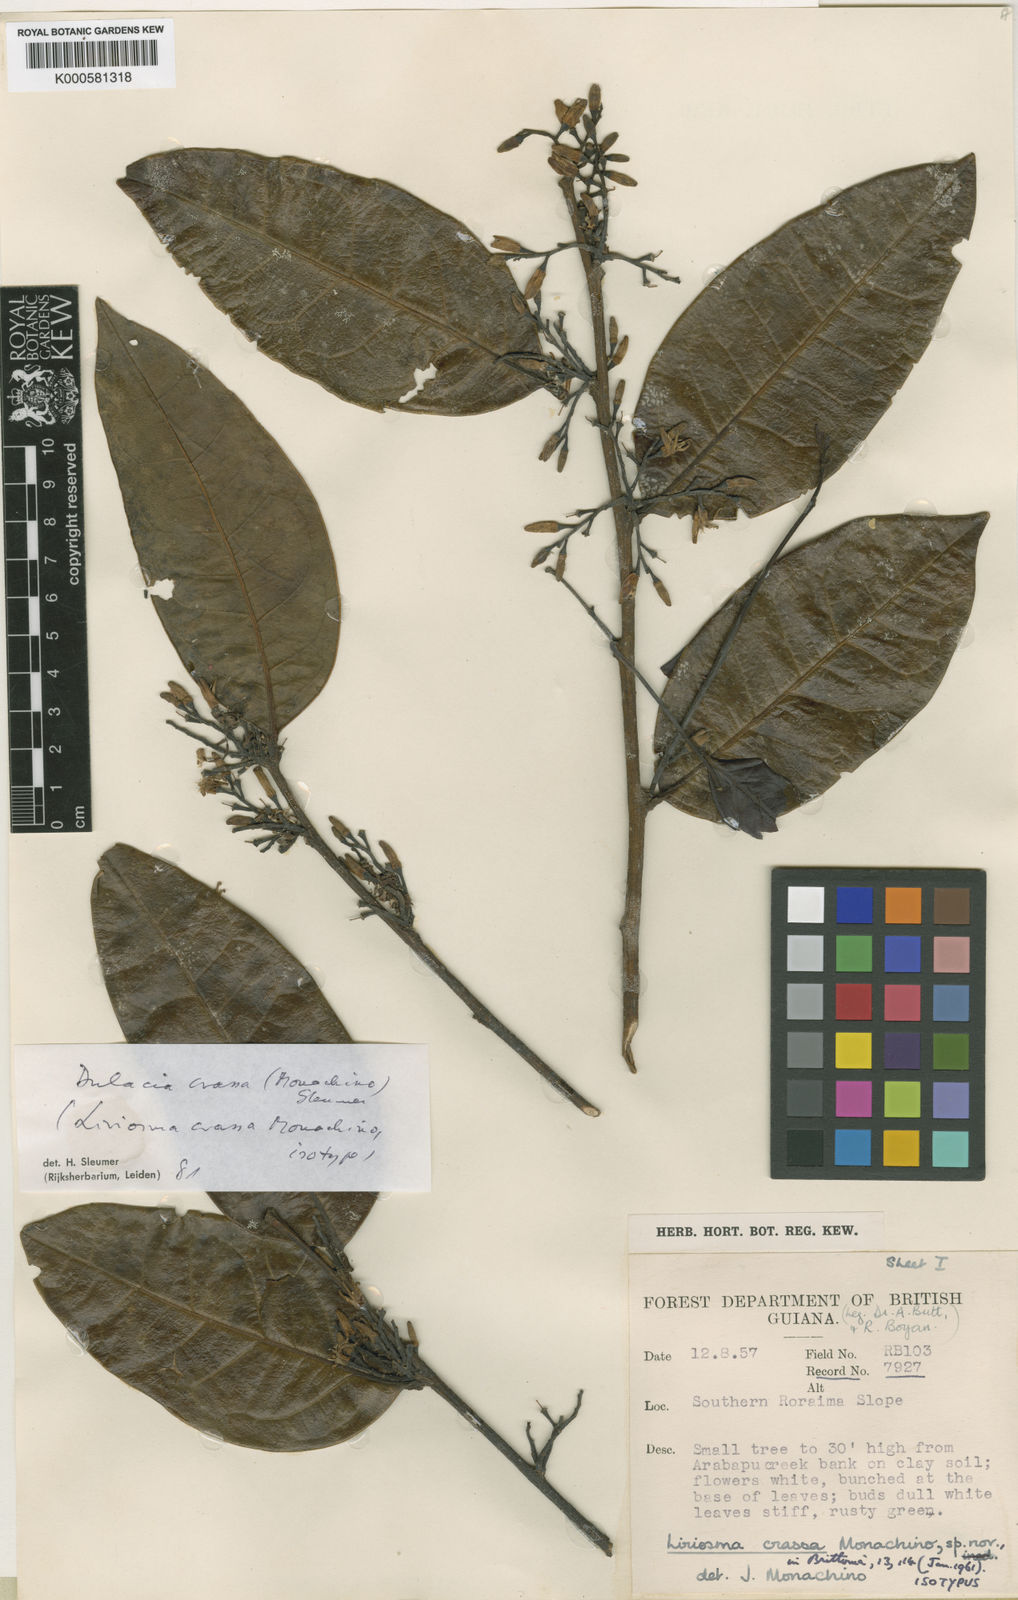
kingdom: Plantae
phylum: Tracheophyta
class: Magnoliopsida
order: Santalales
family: Olacaceae
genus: Dulacia
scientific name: Dulacia crassa
